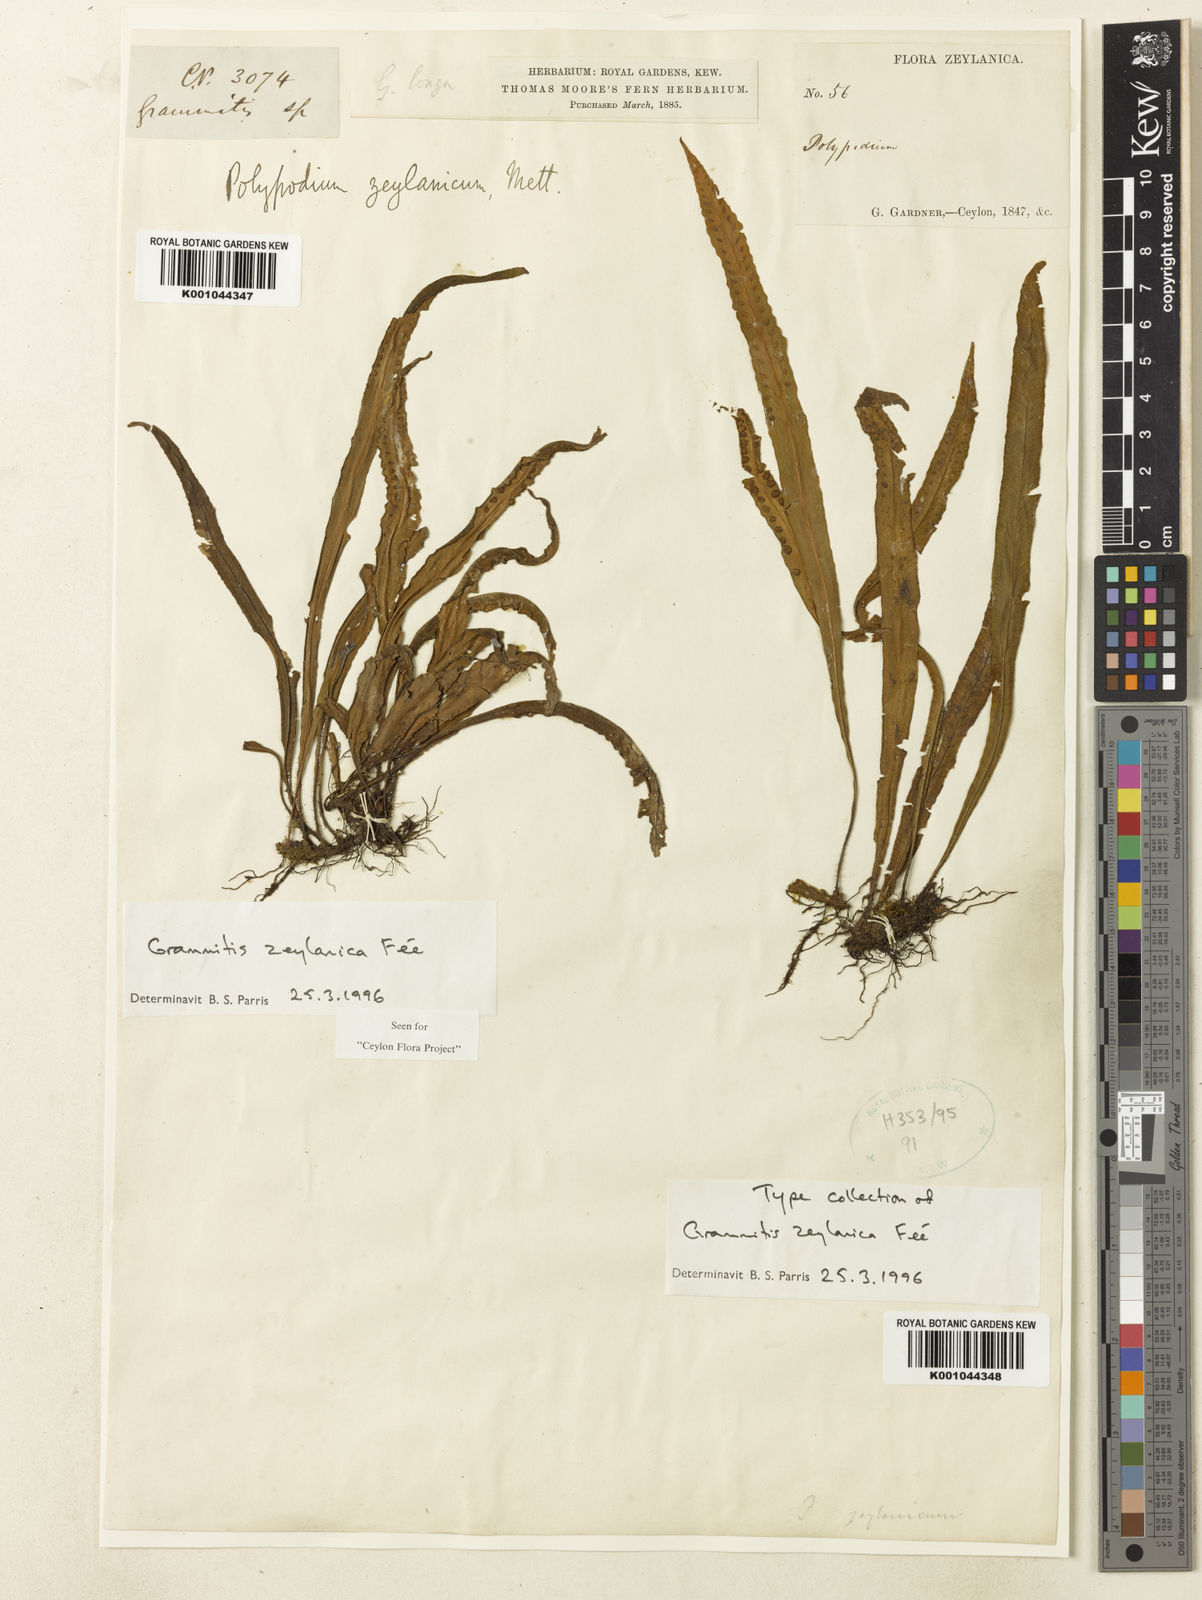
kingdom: Plantae
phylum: Tracheophyta
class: Polypodiopsida
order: Polypodiales
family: Polypodiaceae
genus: Grammitis
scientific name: Grammitis
